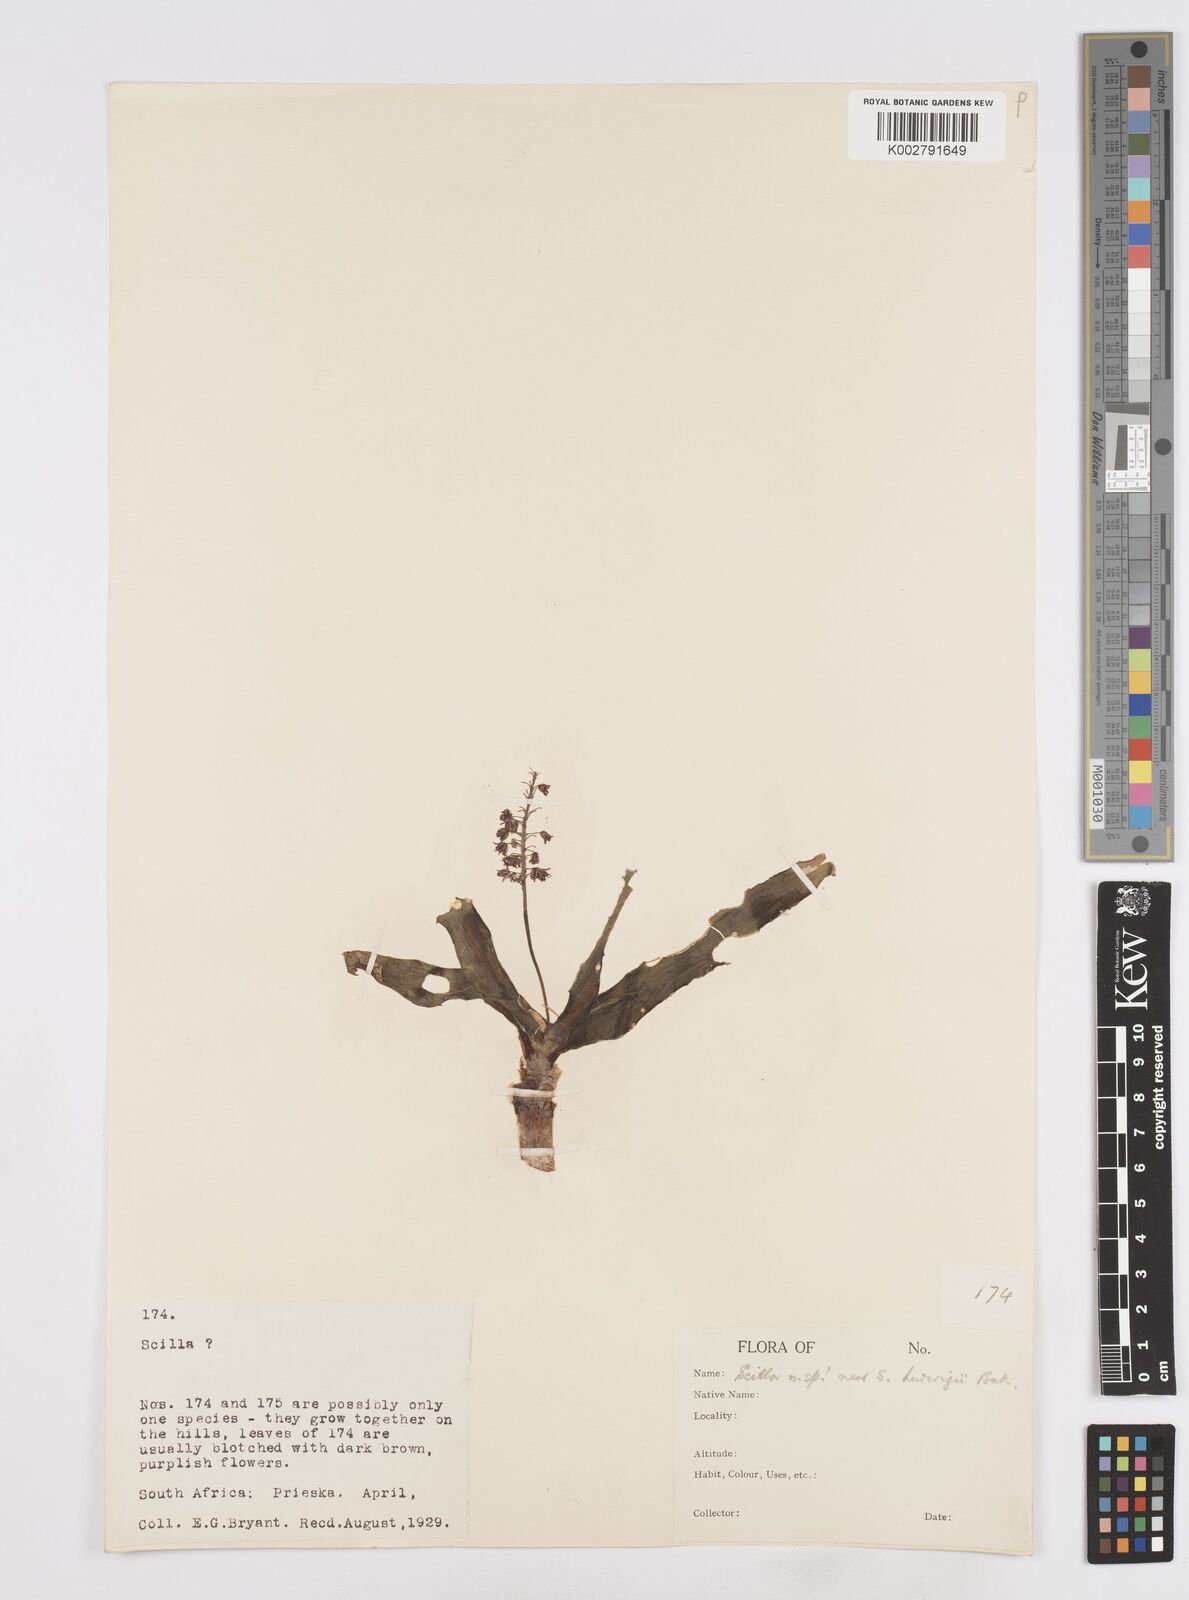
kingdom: Plantae
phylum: Tracheophyta
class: Liliopsida
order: Asparagales
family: Asparagaceae
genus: Scilla
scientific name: Scilla
